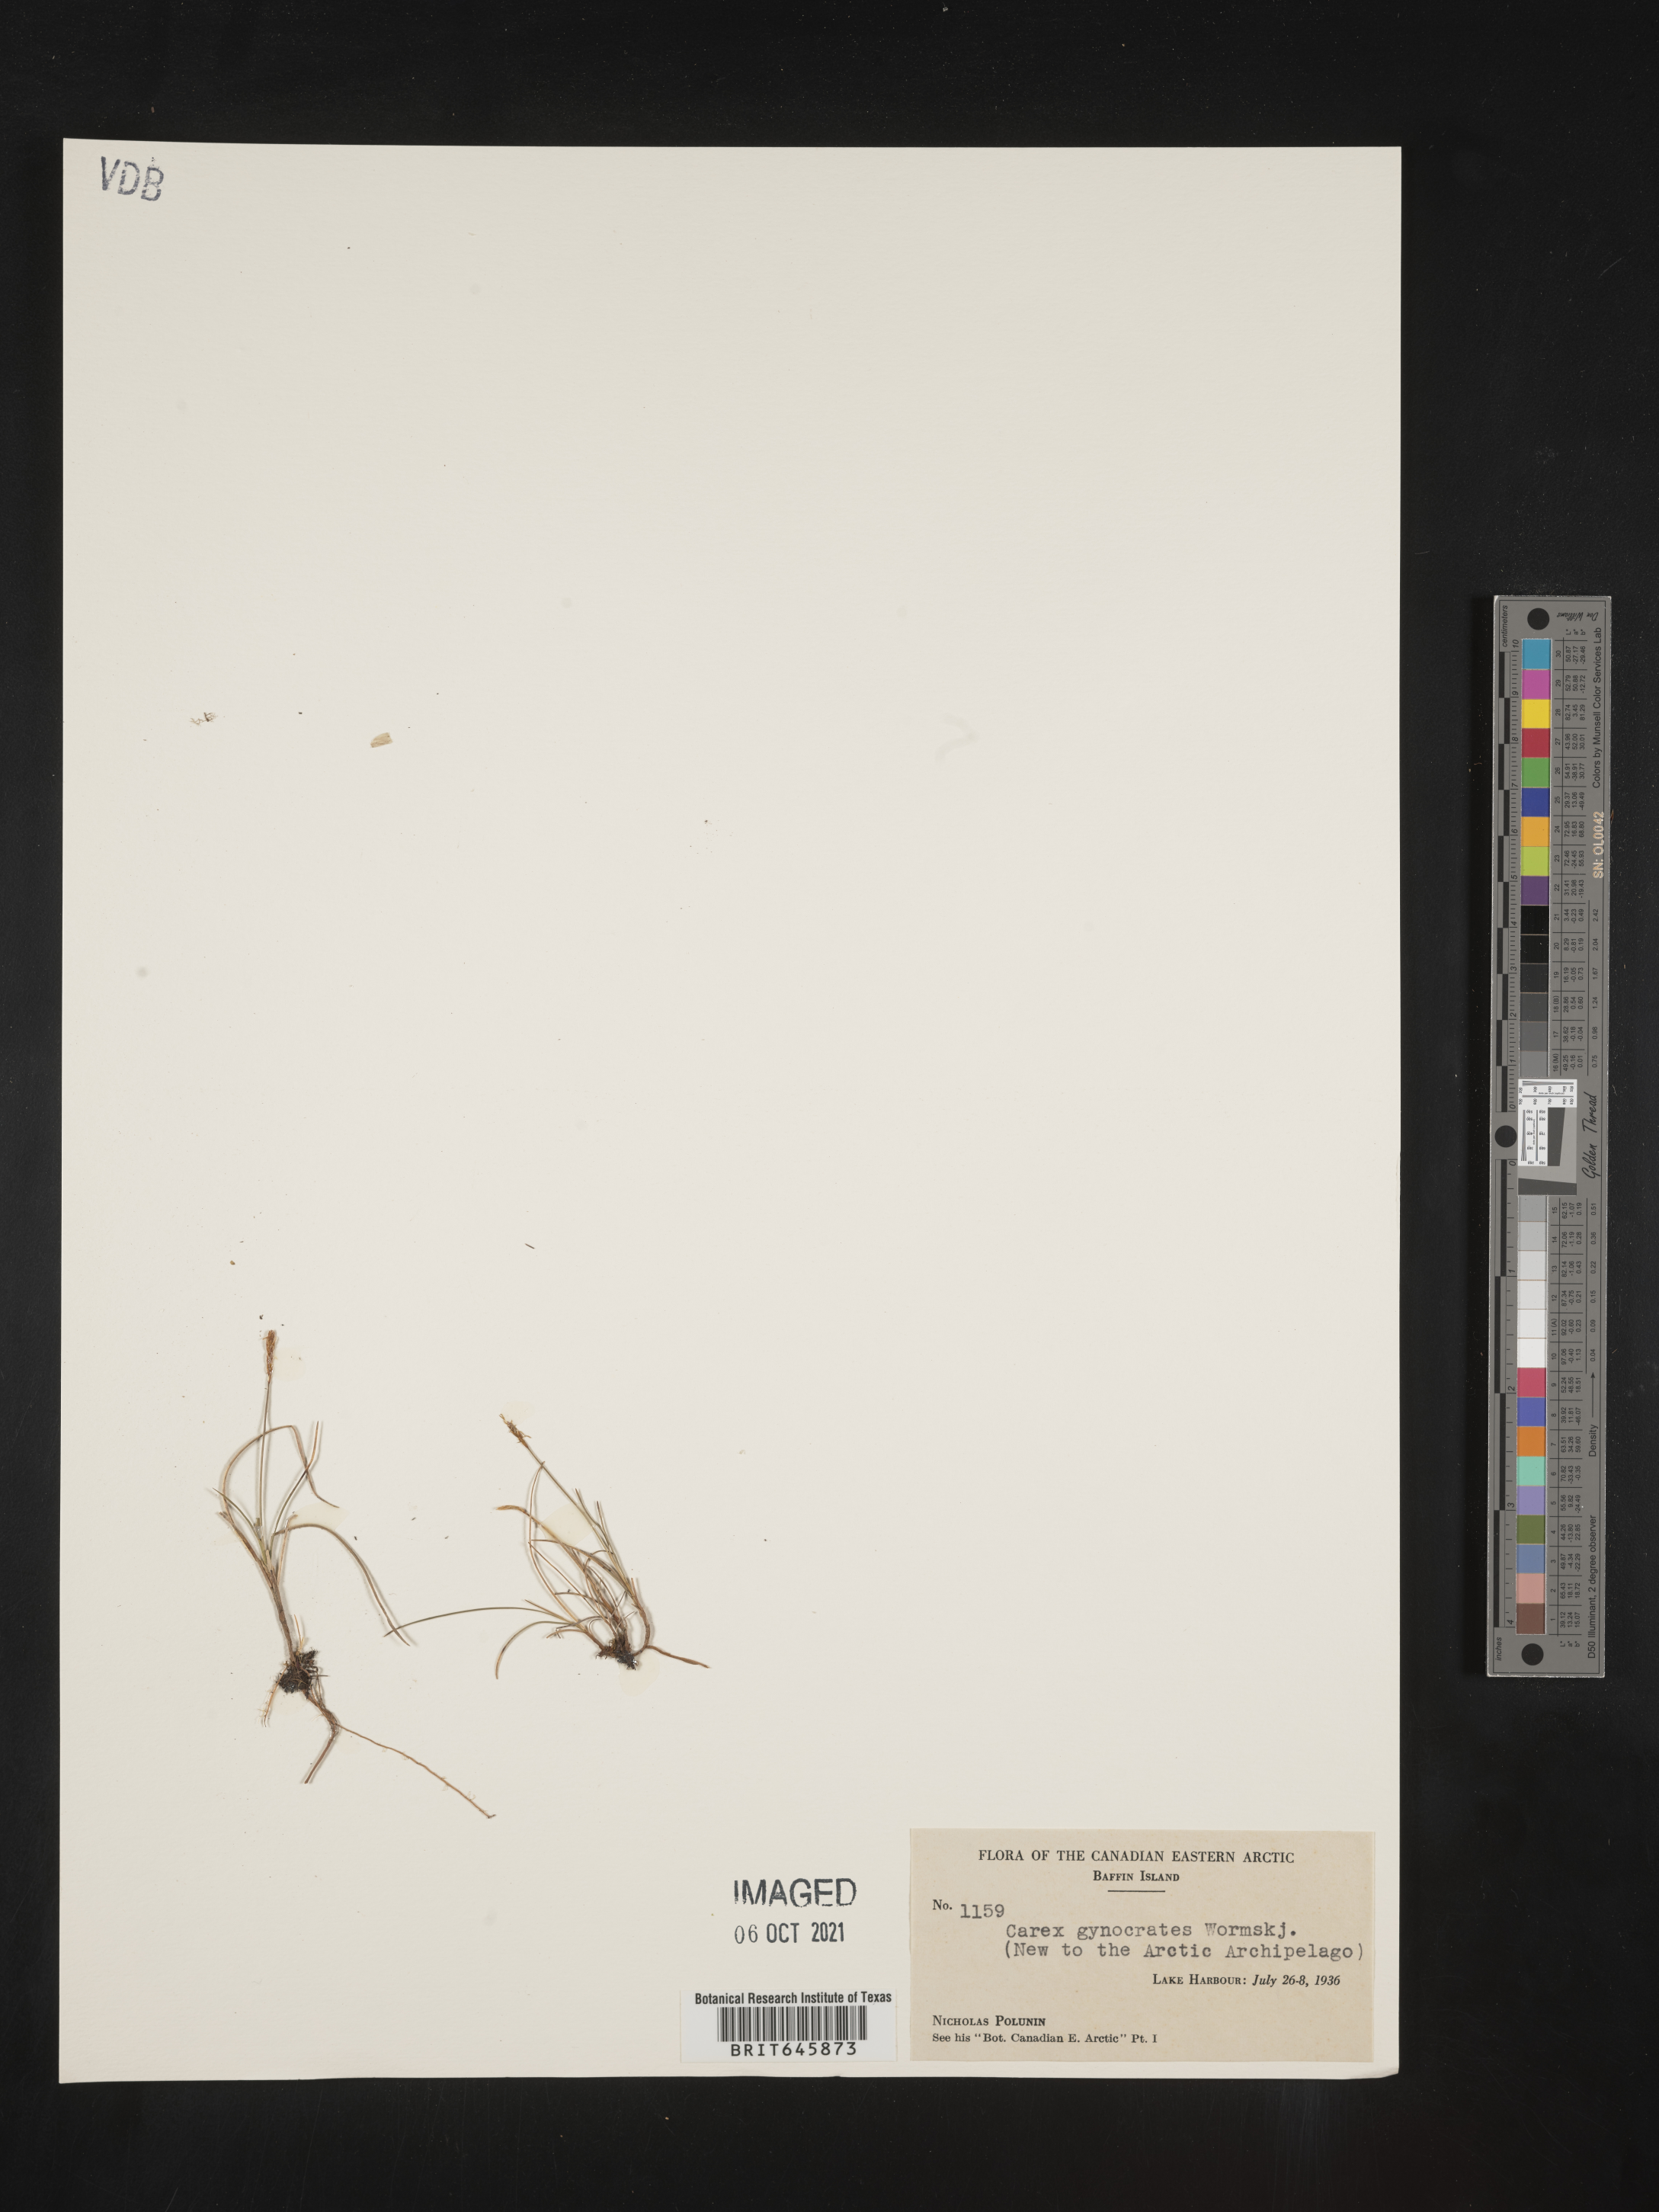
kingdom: Plantae
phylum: Tracheophyta
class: Liliopsida
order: Poales
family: Cyperaceae
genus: Carex
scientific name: Carex nardina
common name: Nard sedge
